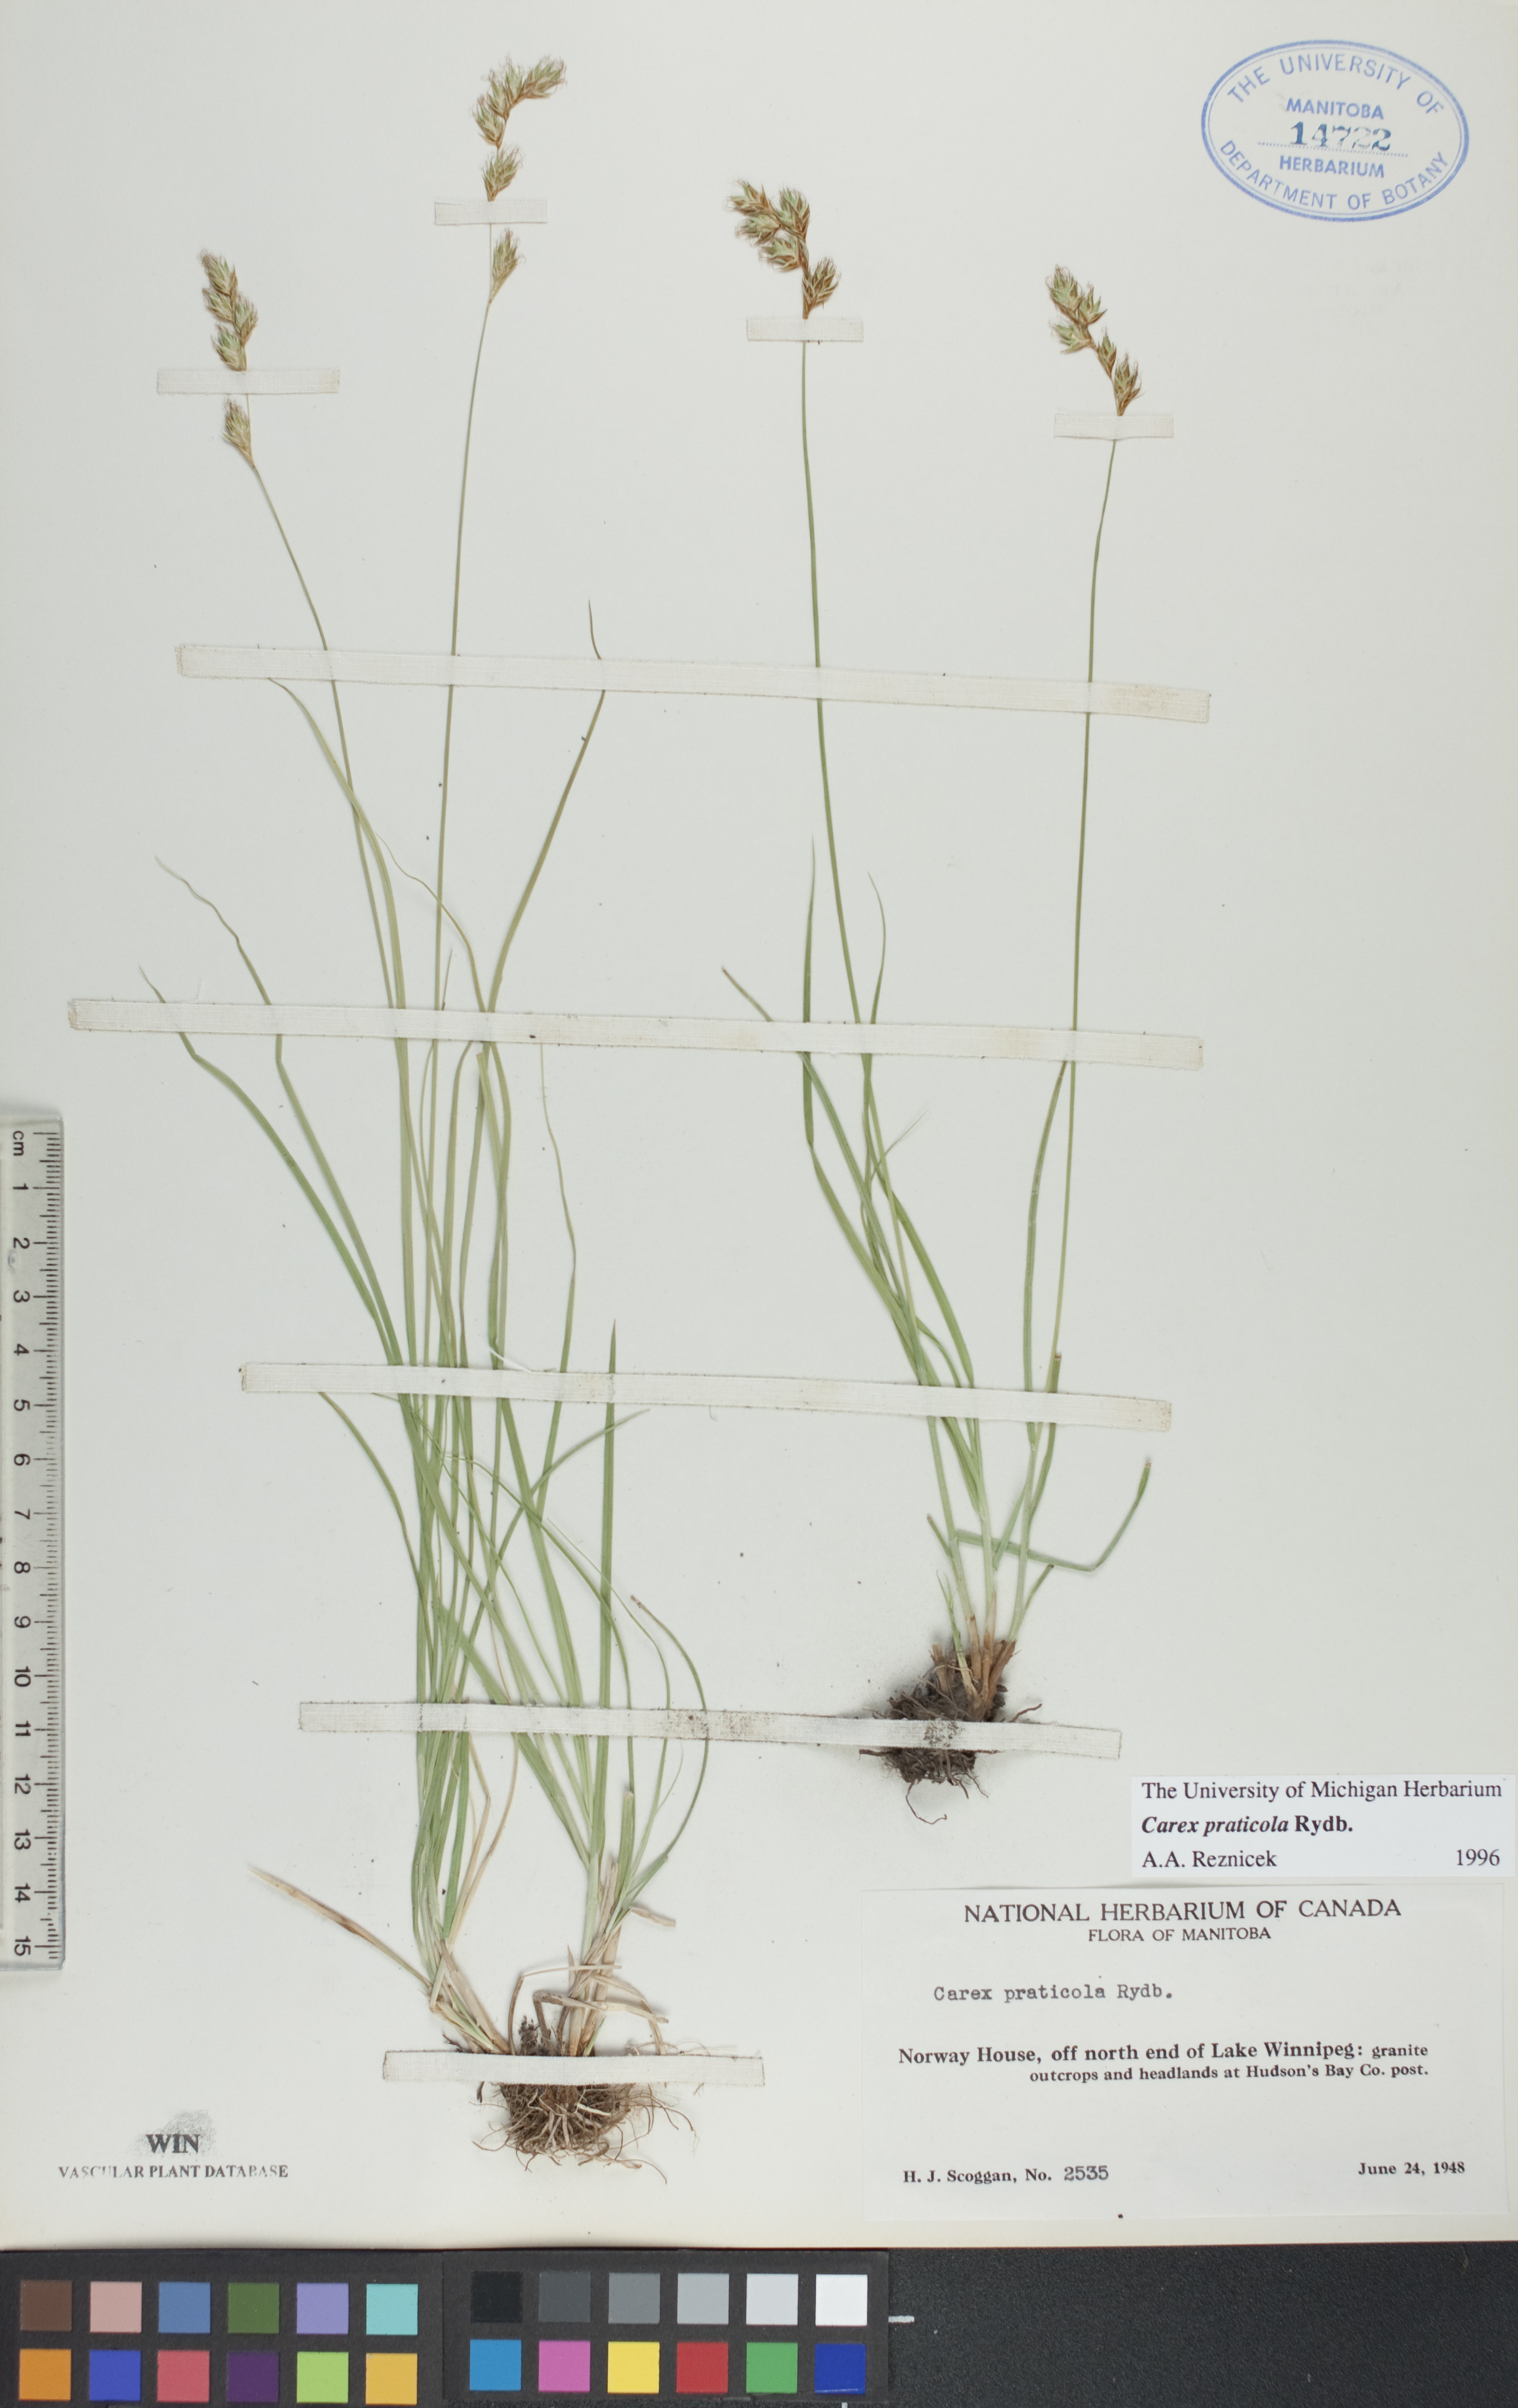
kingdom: Plantae
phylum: Tracheophyta
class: Liliopsida
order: Poales
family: Cyperaceae
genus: Carex
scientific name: Carex praticola
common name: Large-fruited oval sedge
